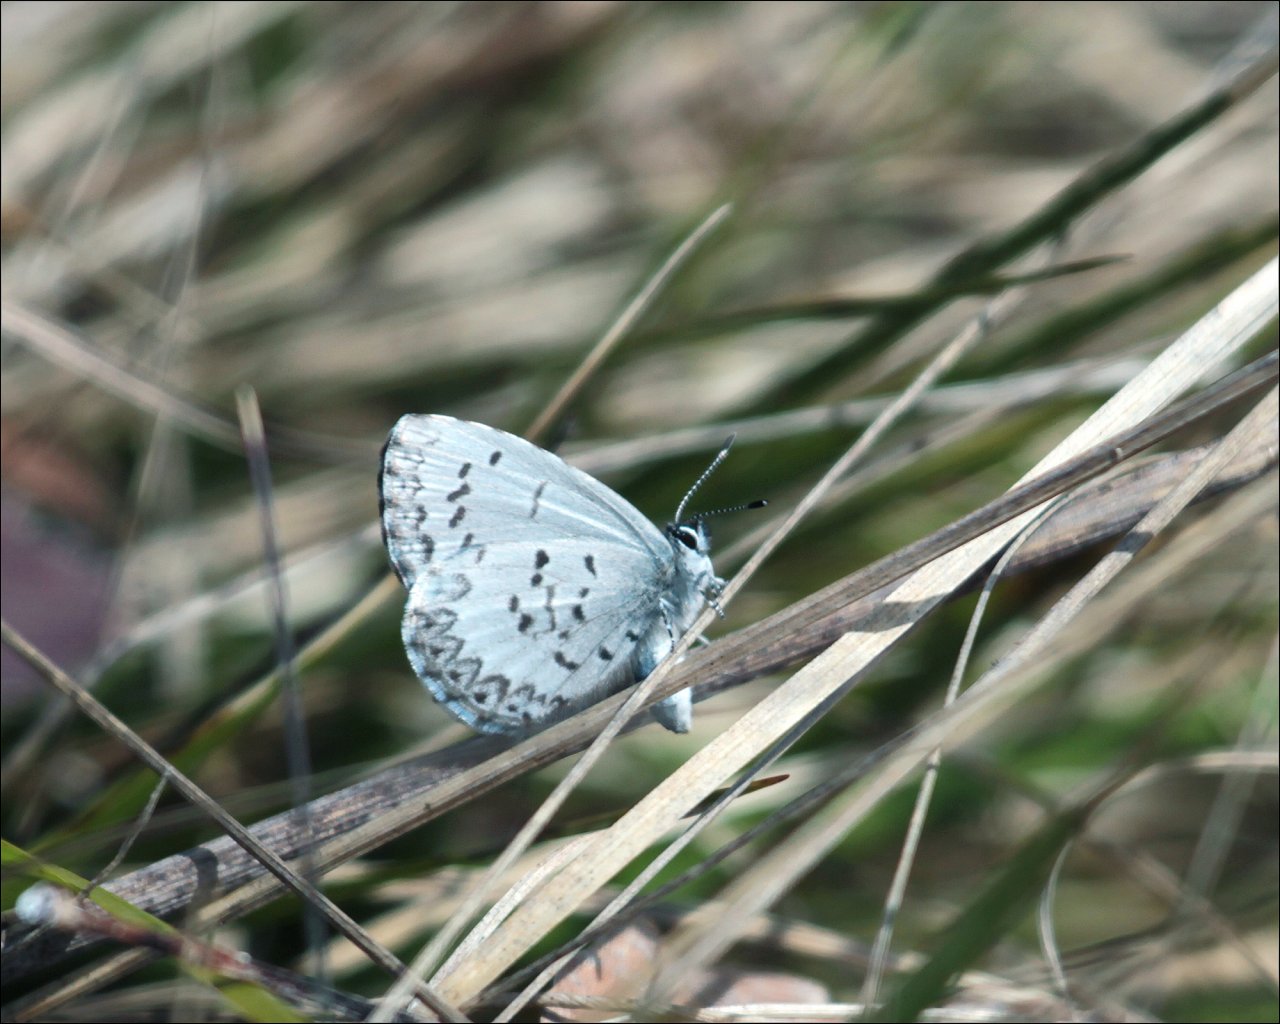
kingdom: Animalia
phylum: Arthropoda
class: Insecta
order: Lepidoptera
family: Lycaenidae
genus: Celastrina
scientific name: Celastrina lucia
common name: Northern Spring Azure
